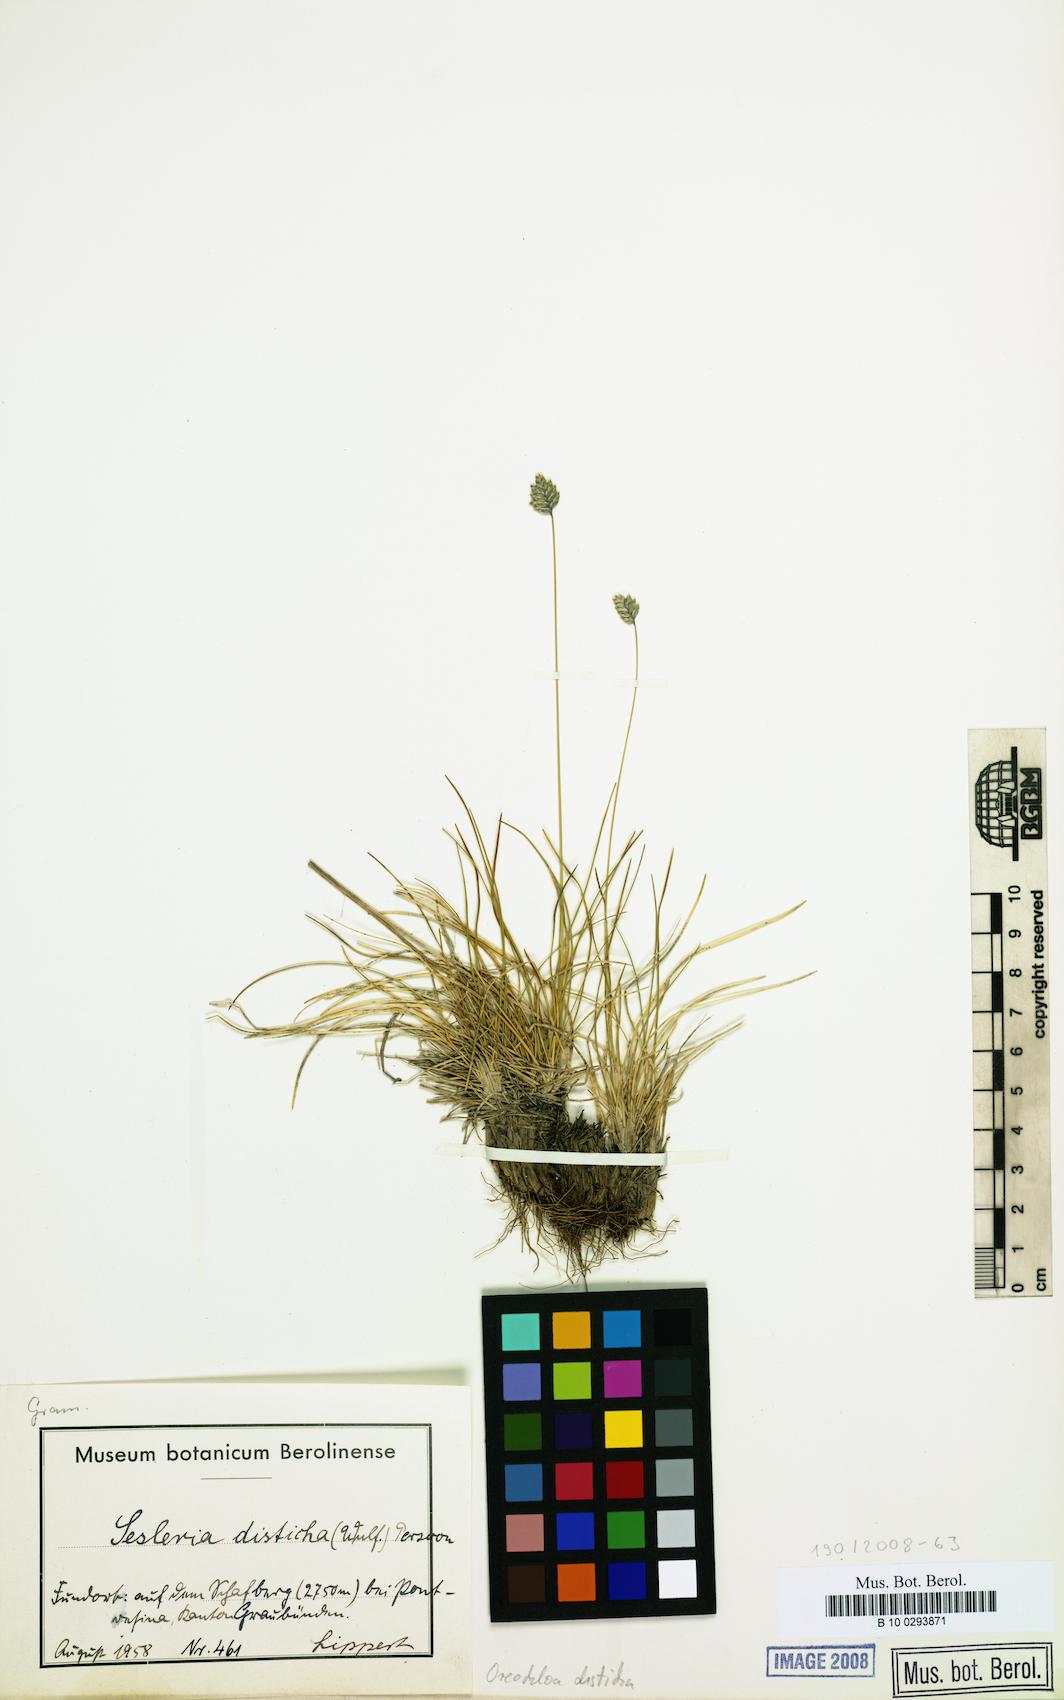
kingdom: Plantae
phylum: Tracheophyta
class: Liliopsida
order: Poales
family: Poaceae
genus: Oreochloa
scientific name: Oreochloa disticha
